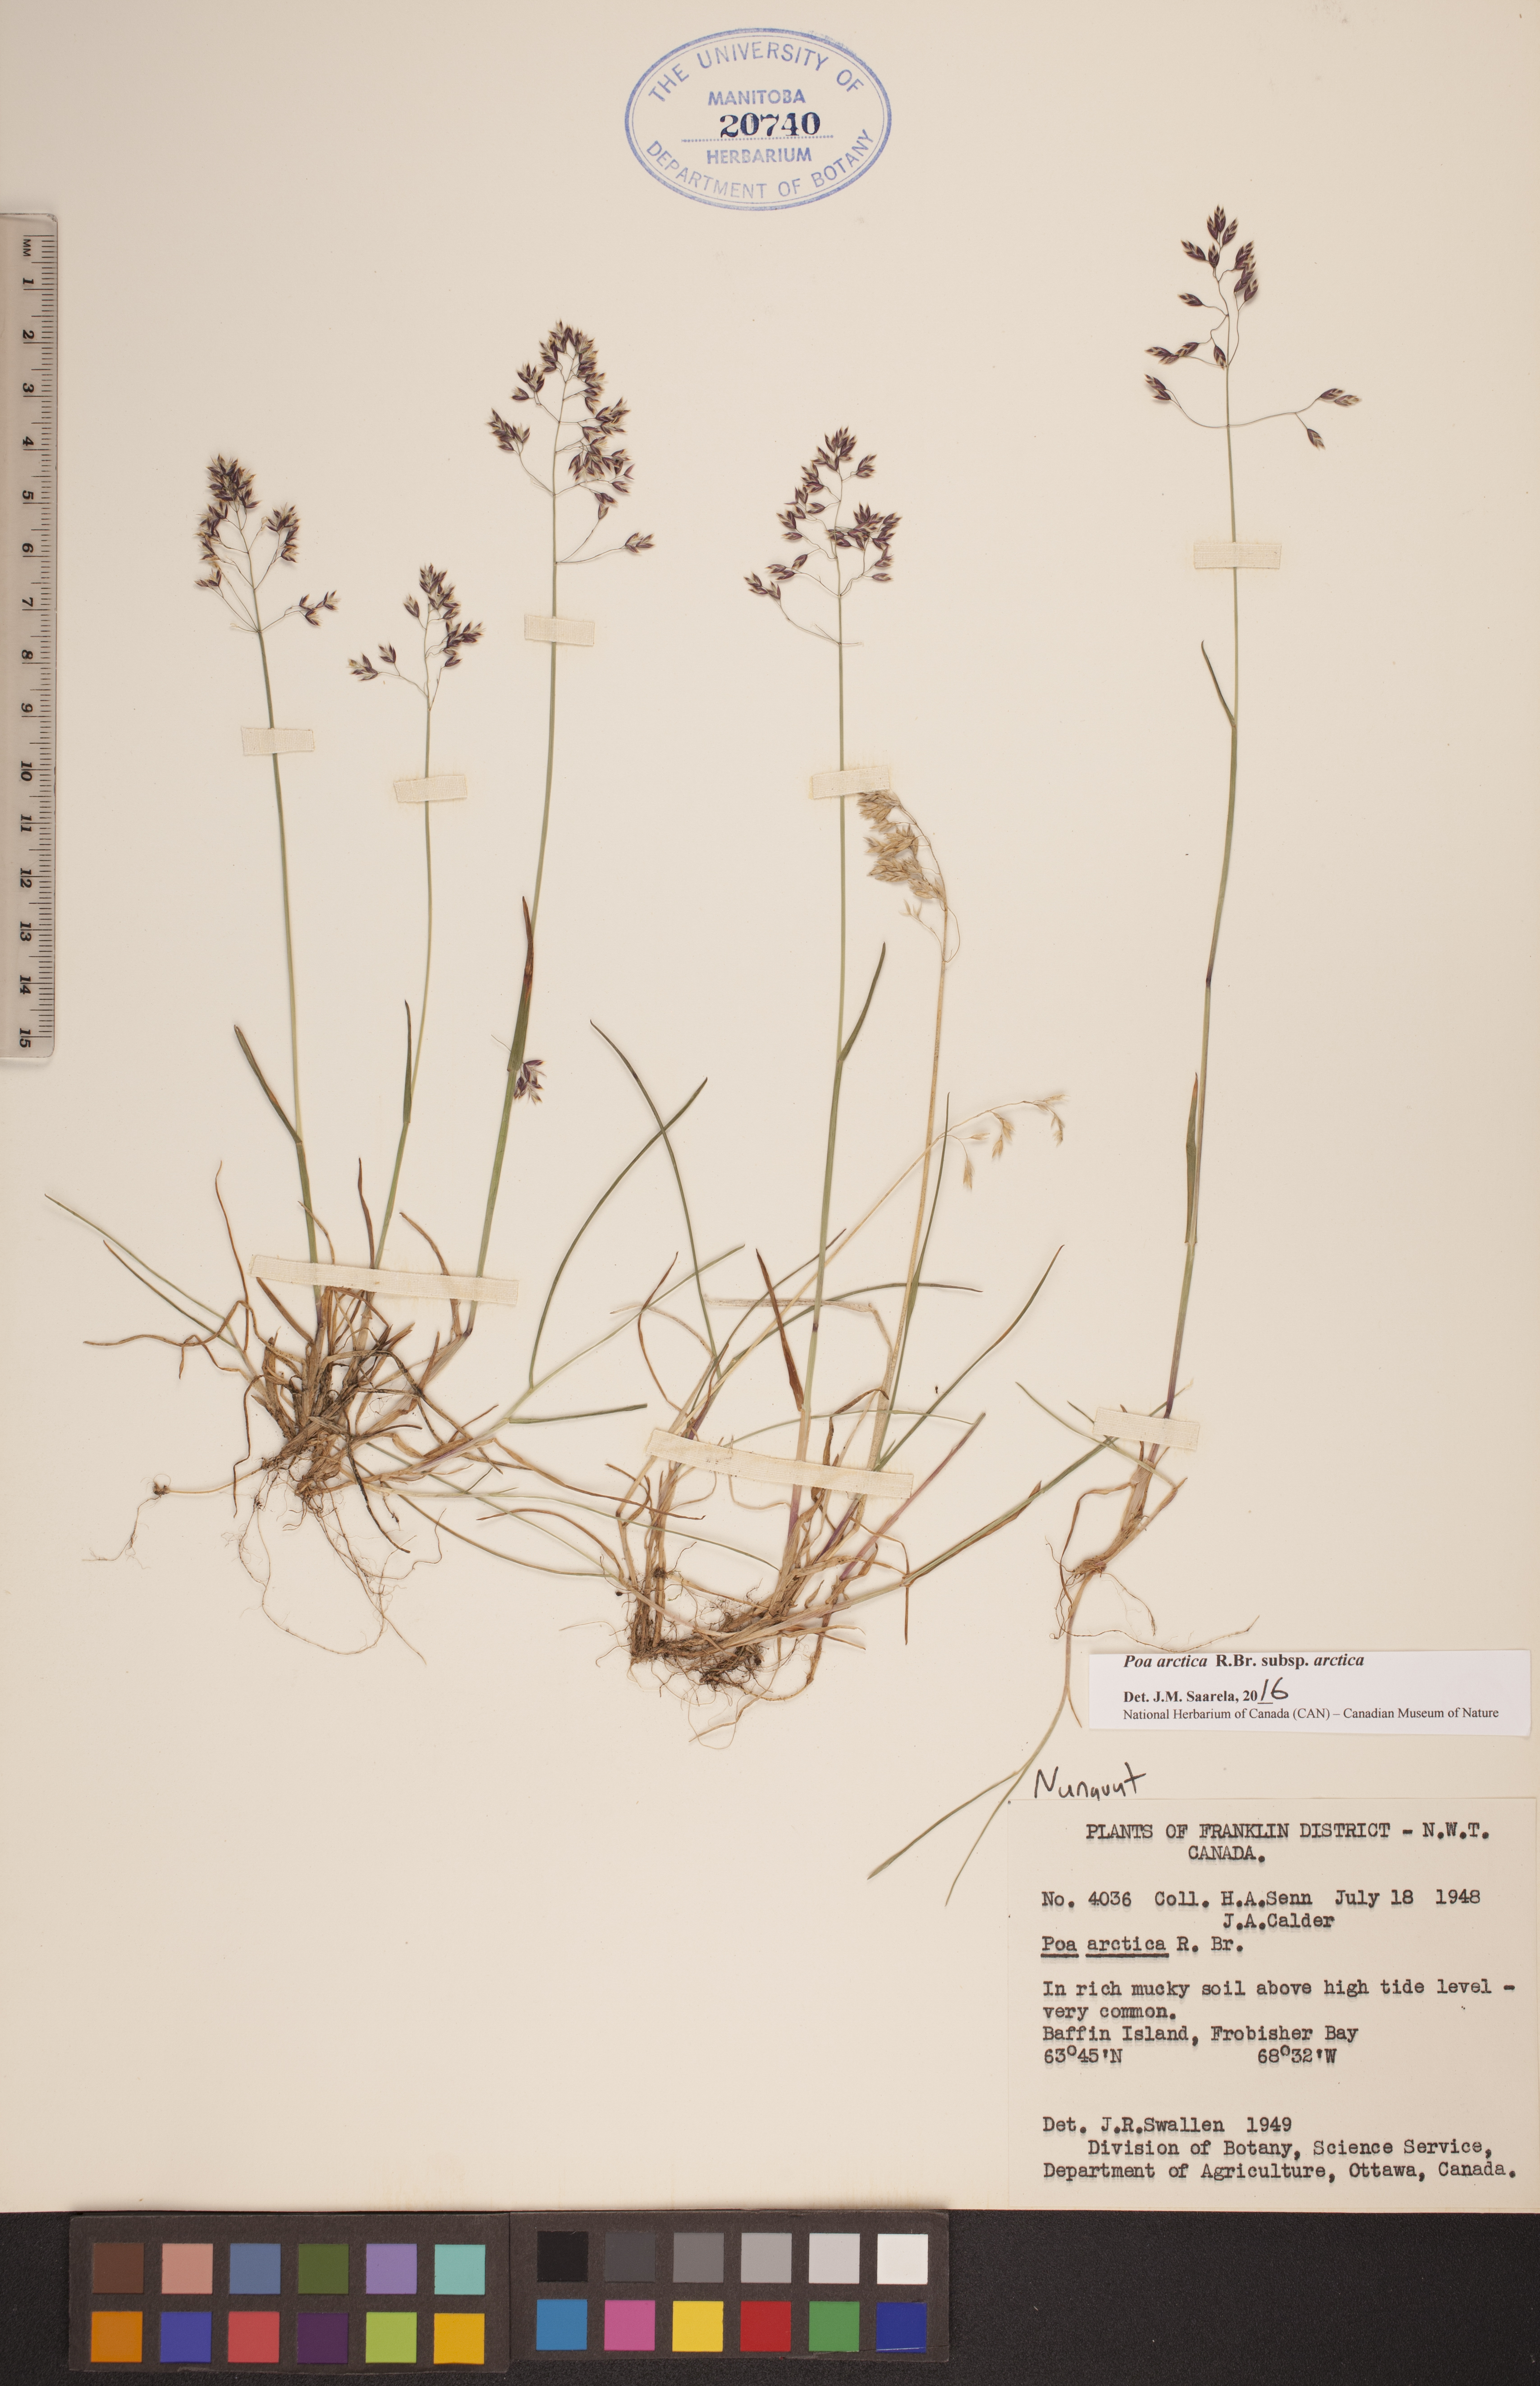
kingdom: Plantae
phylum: Tracheophyta
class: Liliopsida
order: Poales
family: Poaceae
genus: Poa
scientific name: Poa arctica
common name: Arctic bluegrass
